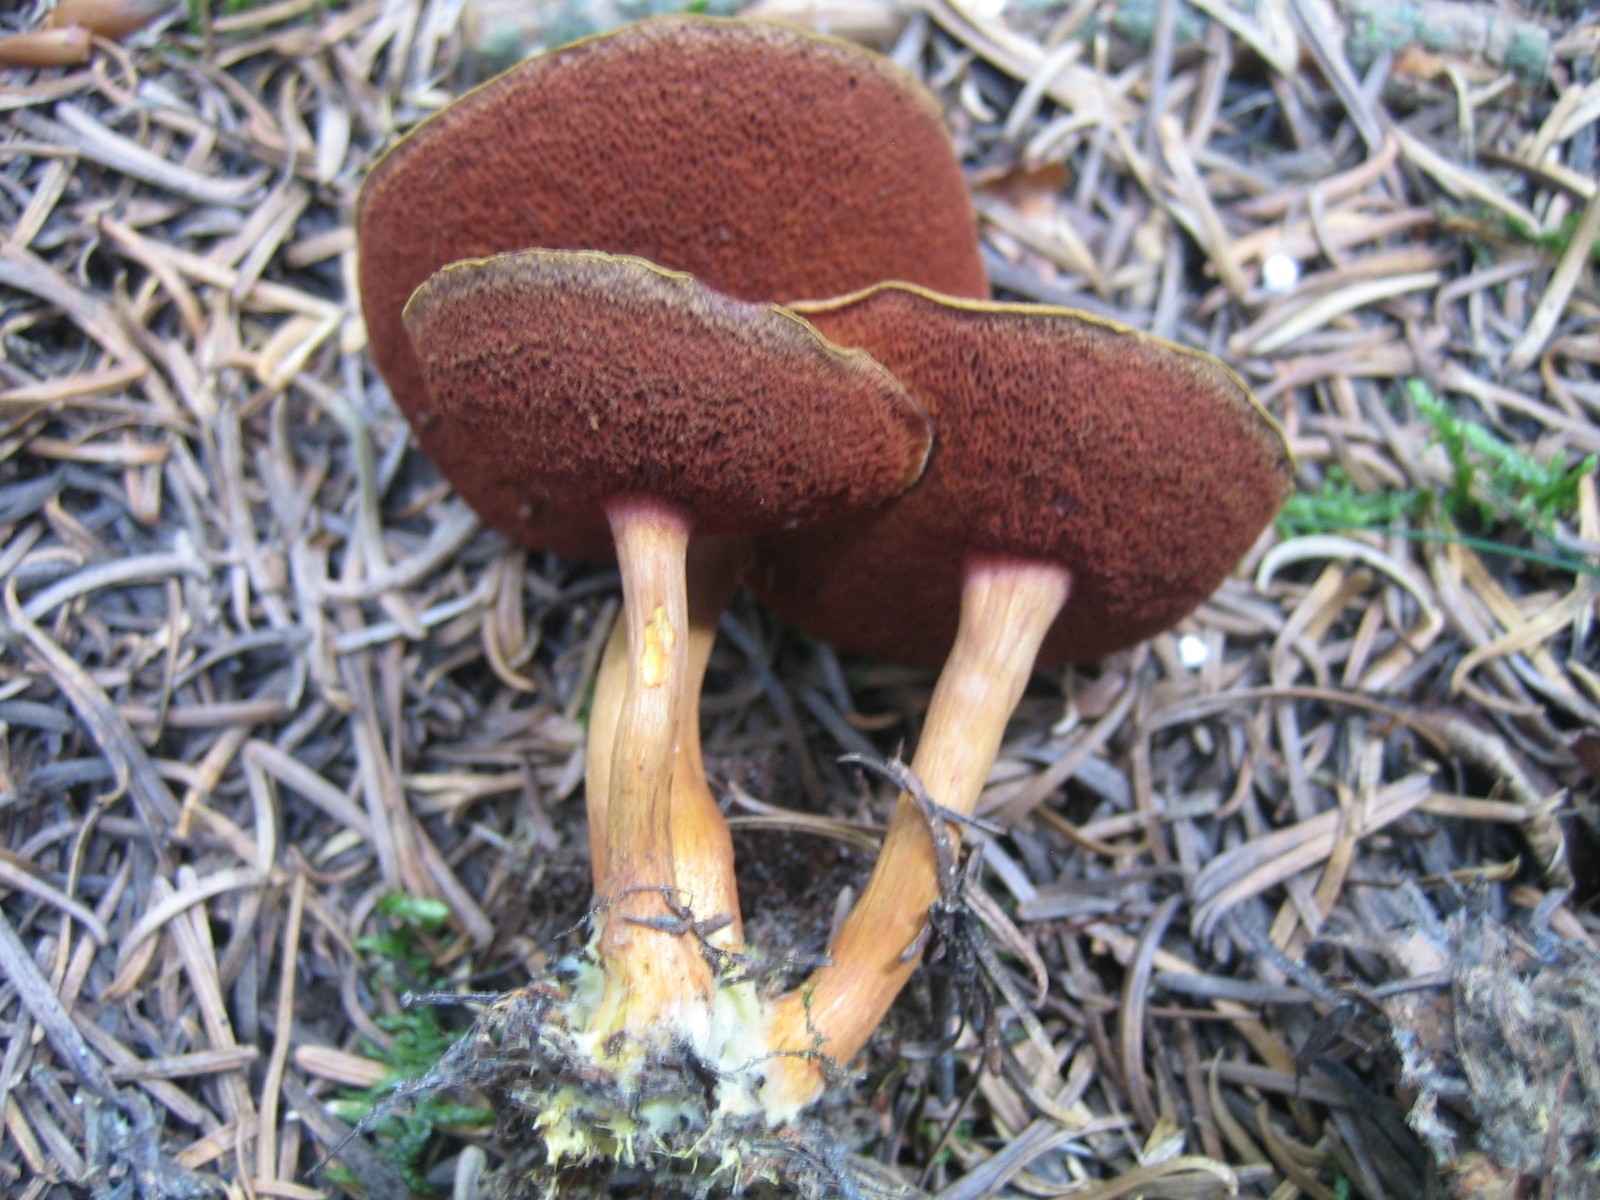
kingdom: Fungi
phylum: Basidiomycota
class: Agaricomycetes
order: Boletales
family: Boletaceae
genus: Chalciporus
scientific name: Chalciporus piperatus
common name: peberrørhat
